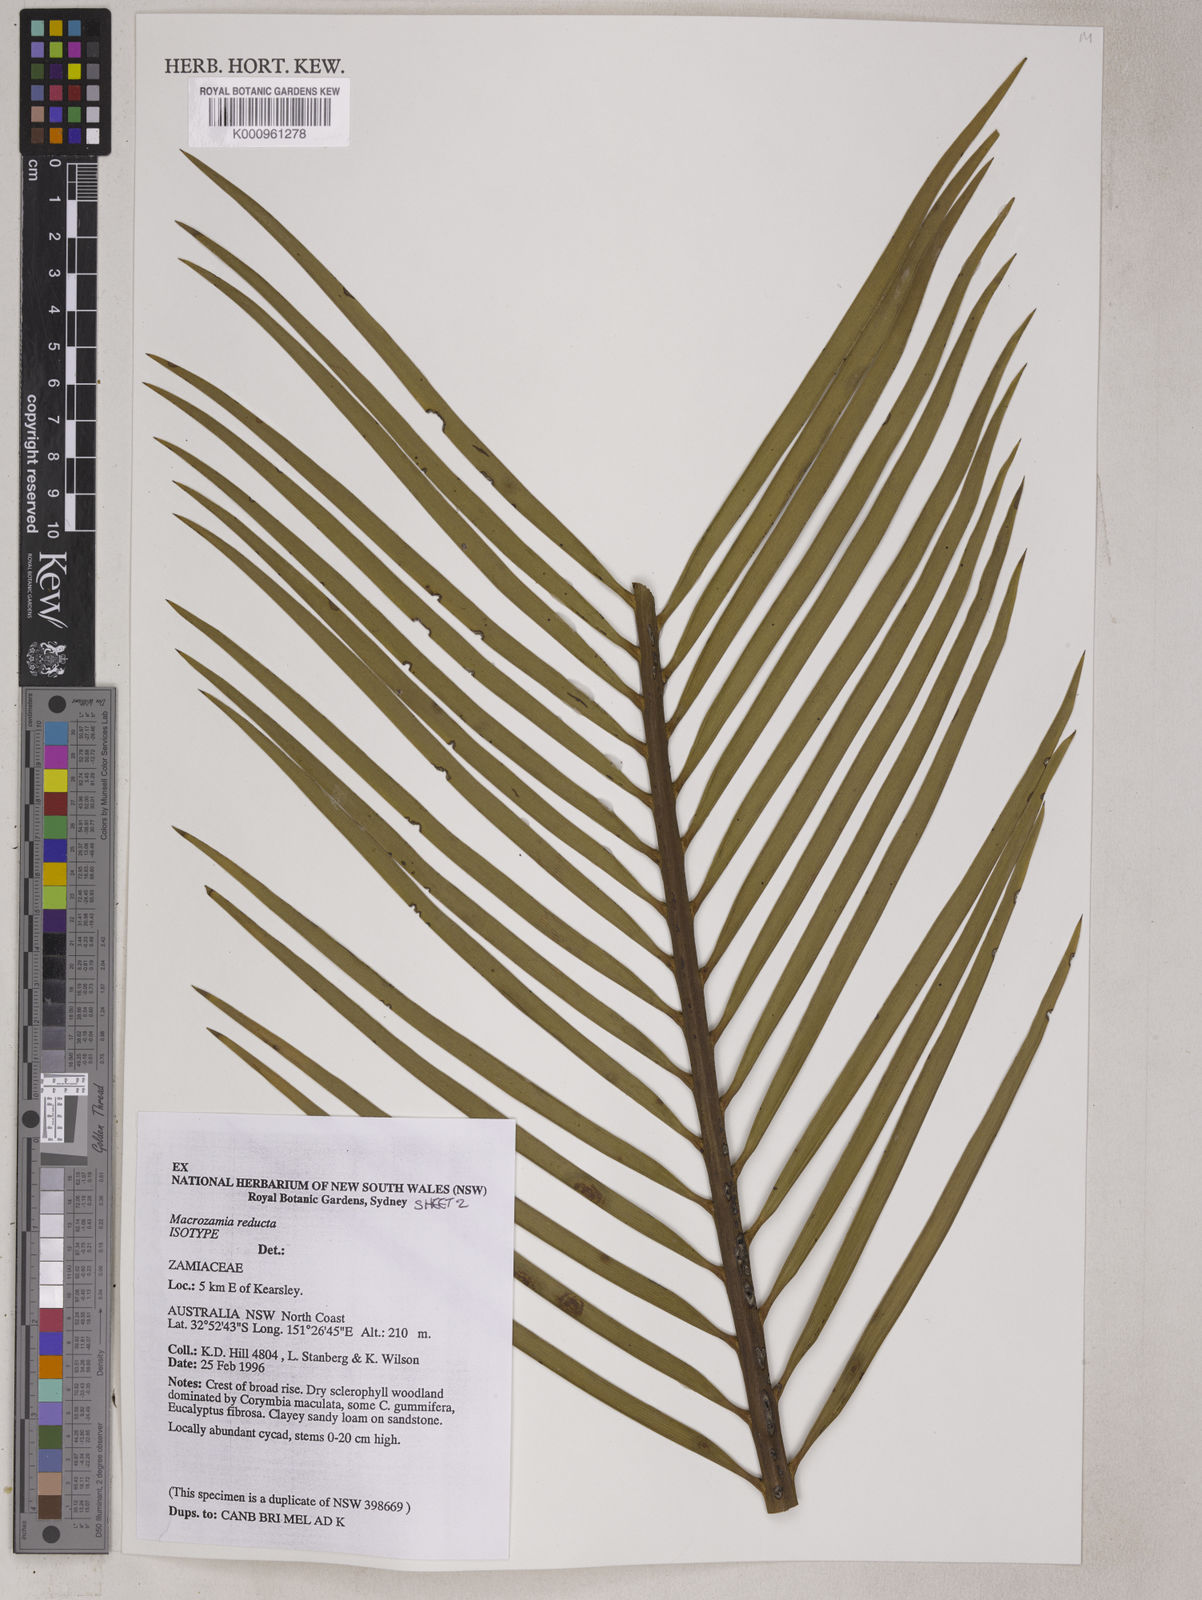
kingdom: Plantae
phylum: Tracheophyta
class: Cycadopsida
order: Cycadales
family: Zamiaceae
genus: Macrozamia
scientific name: Macrozamia reducta
